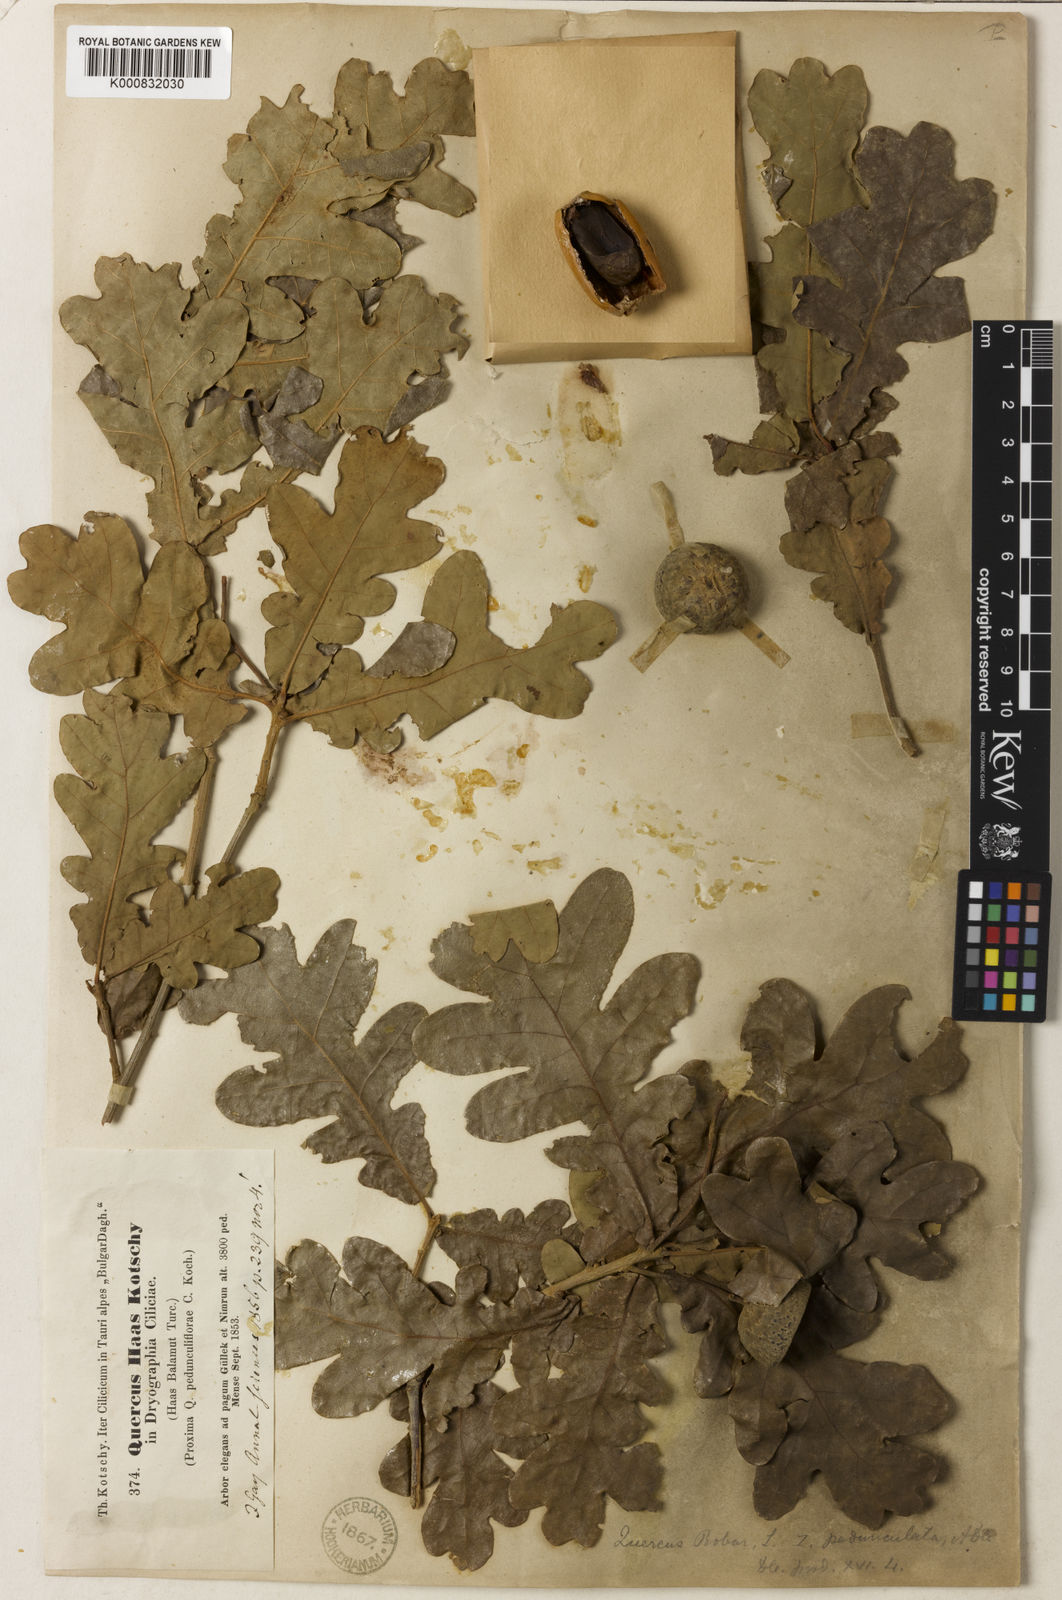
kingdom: Plantae
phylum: Tracheophyta
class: Magnoliopsida
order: Fagales
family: Fagaceae
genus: Quercus
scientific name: Quercus robur
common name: Pedunculate oak
